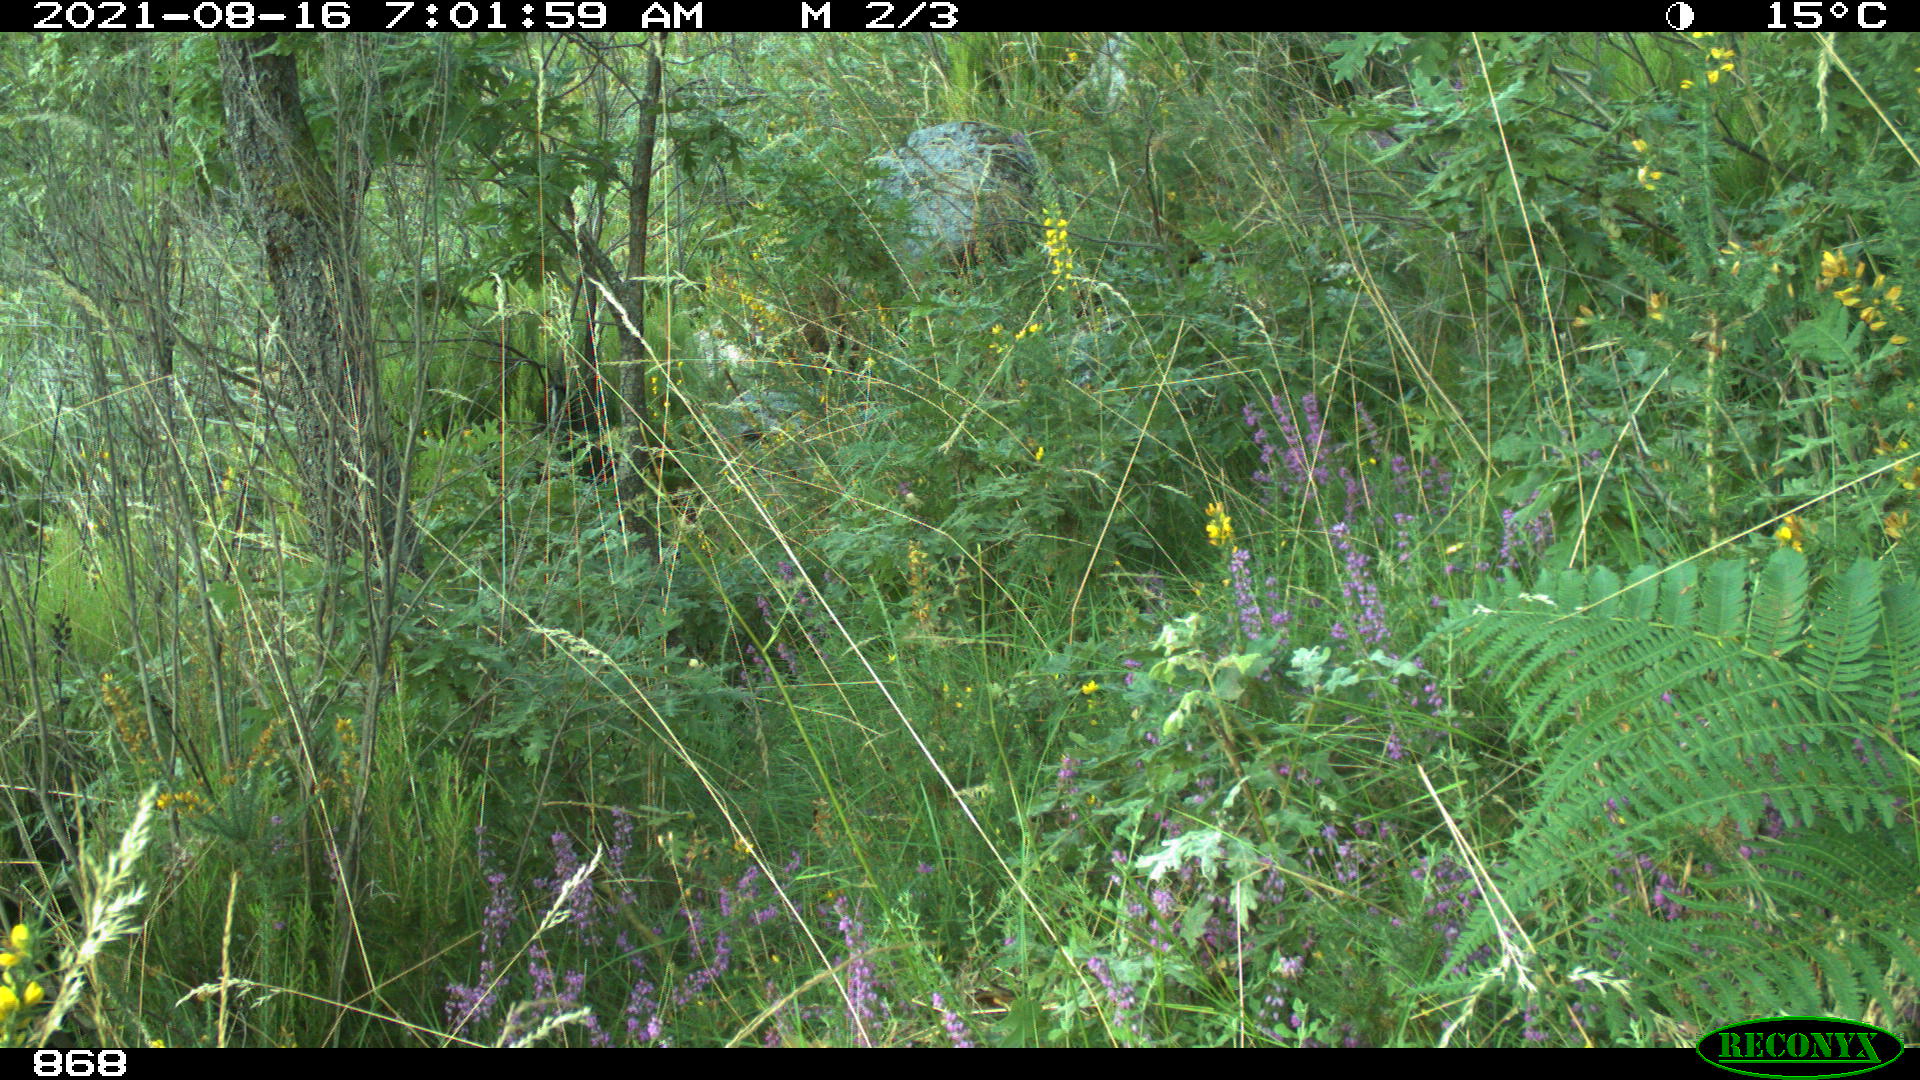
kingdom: Animalia
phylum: Chordata
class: Mammalia
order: Artiodactyla
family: Cervidae
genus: Capreolus
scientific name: Capreolus capreolus
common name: Western roe deer
